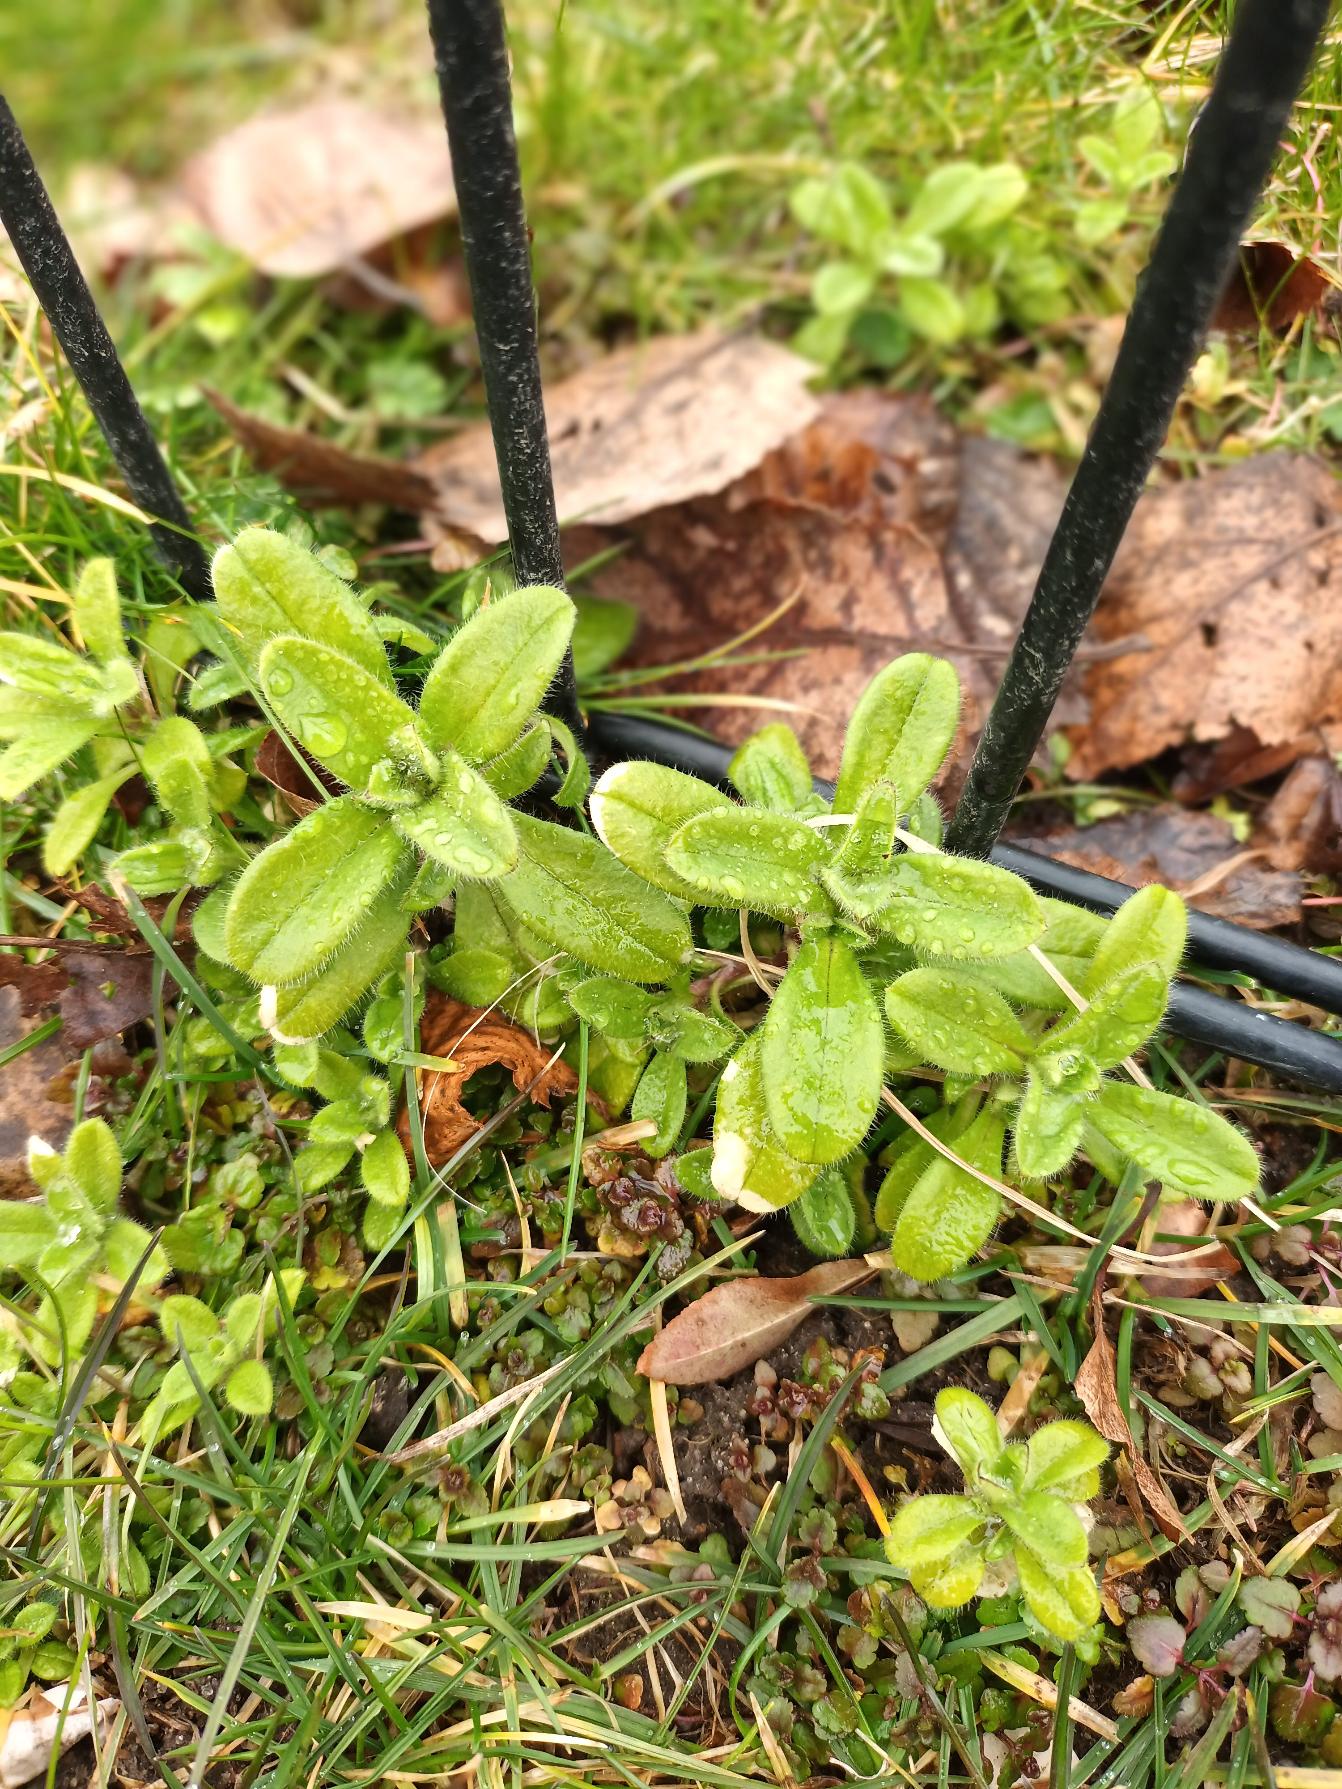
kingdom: Plantae
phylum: Tracheophyta
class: Magnoliopsida
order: Caryophyllales
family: Caryophyllaceae
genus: Cerastium
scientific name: Cerastium glomeratum
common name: Opret hønsetarm
